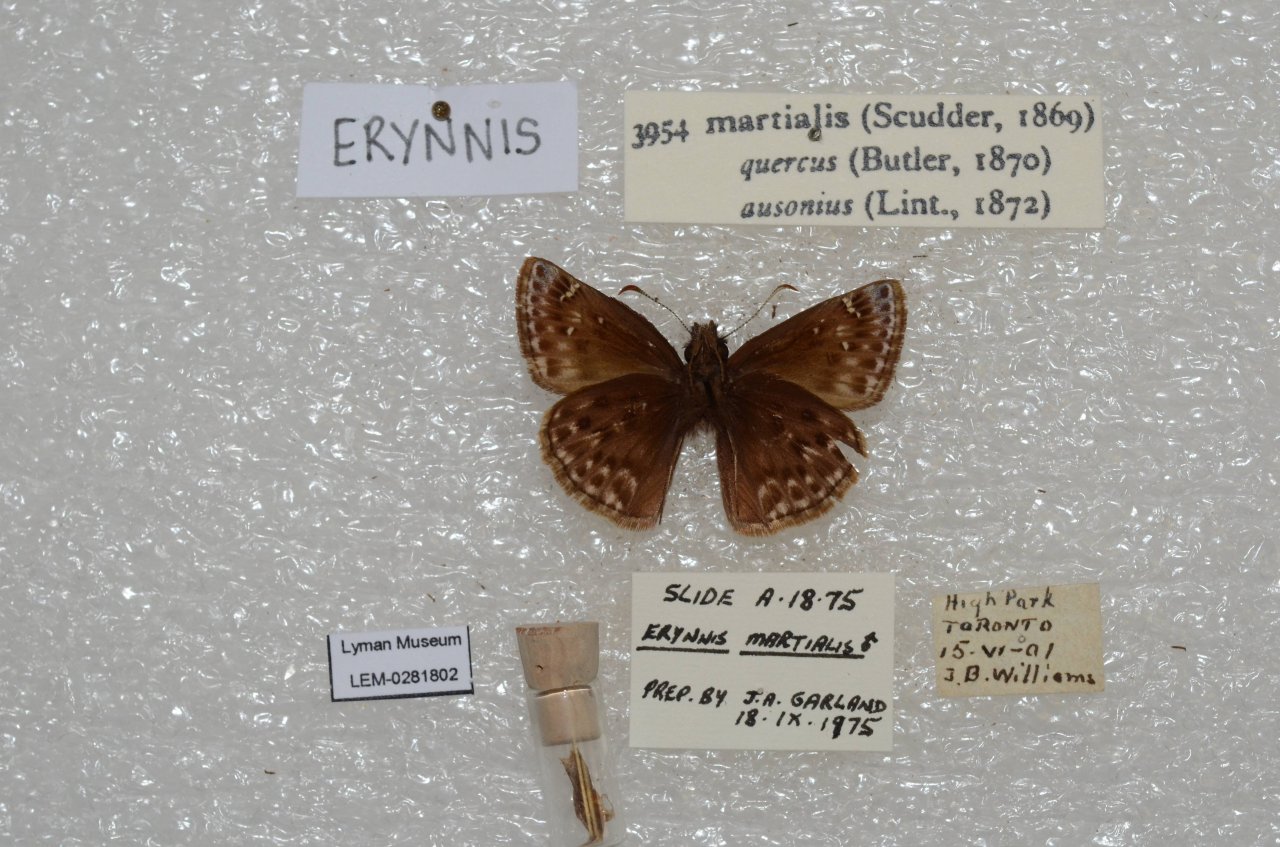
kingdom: Animalia
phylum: Arthropoda
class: Insecta
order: Lepidoptera
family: Hesperiidae
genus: Erynnis
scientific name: Erynnis martialis
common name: Mottled Duskywing
